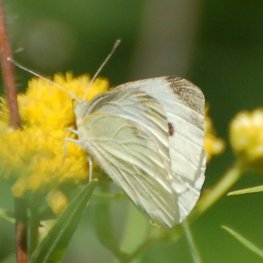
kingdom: Animalia
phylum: Arthropoda
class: Insecta
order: Lepidoptera
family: Pieridae
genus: Pieris
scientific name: Pieris rapae
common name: Cabbage White
